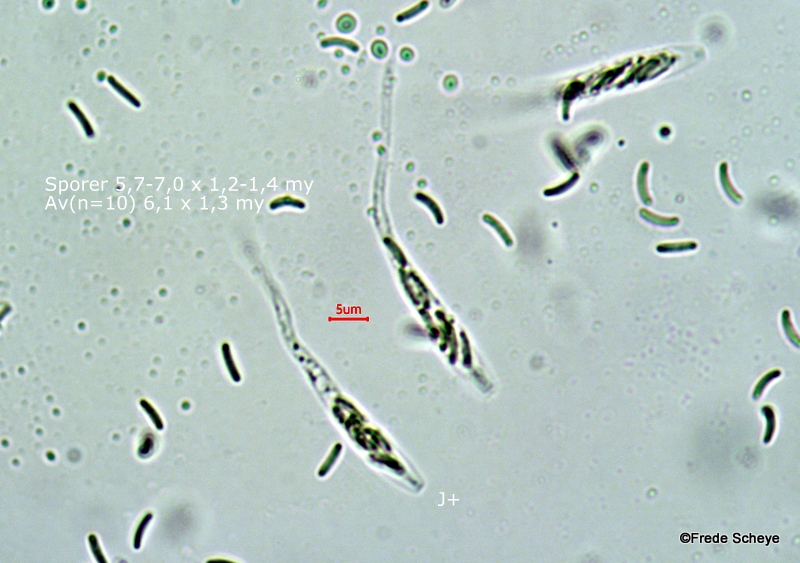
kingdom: Fungi
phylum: Ascomycota
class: Sordariomycetes
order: Xylariales
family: Diatrypaceae
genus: Diatrype
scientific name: Diatrype bullata
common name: pile-kulskorpe
